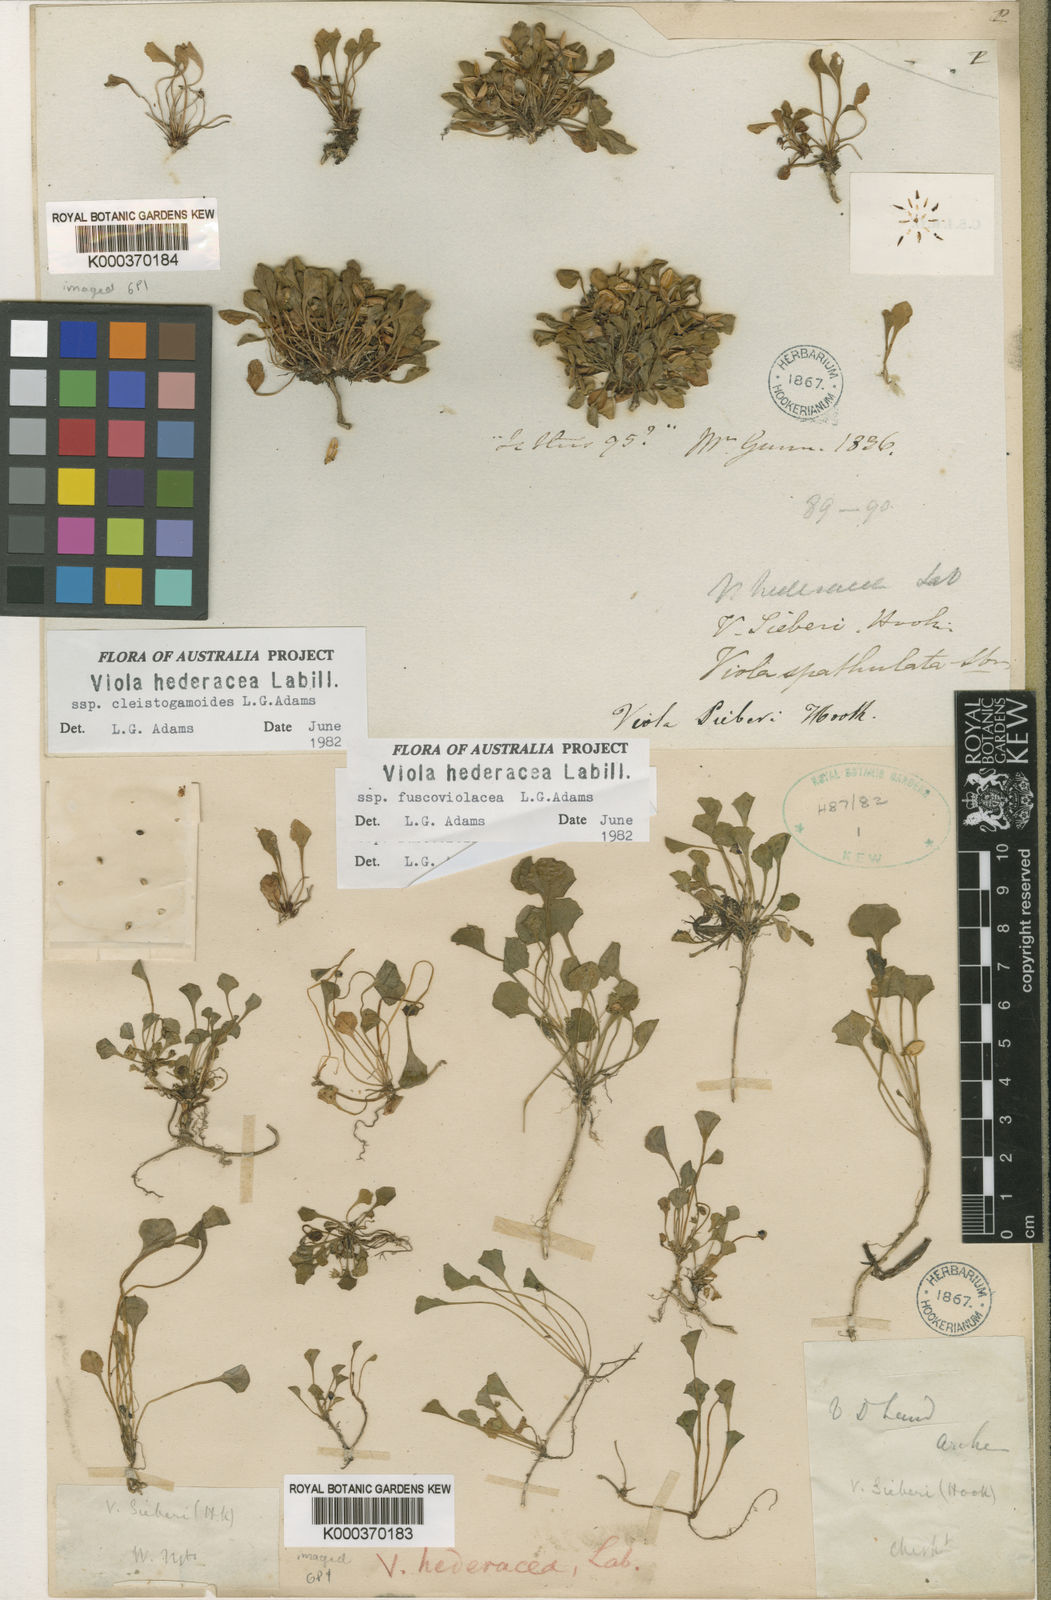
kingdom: Plantae
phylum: Tracheophyta
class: Magnoliopsida
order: Malpighiales
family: Violaceae
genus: Viola
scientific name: Viola hederacea
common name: Australian violet
